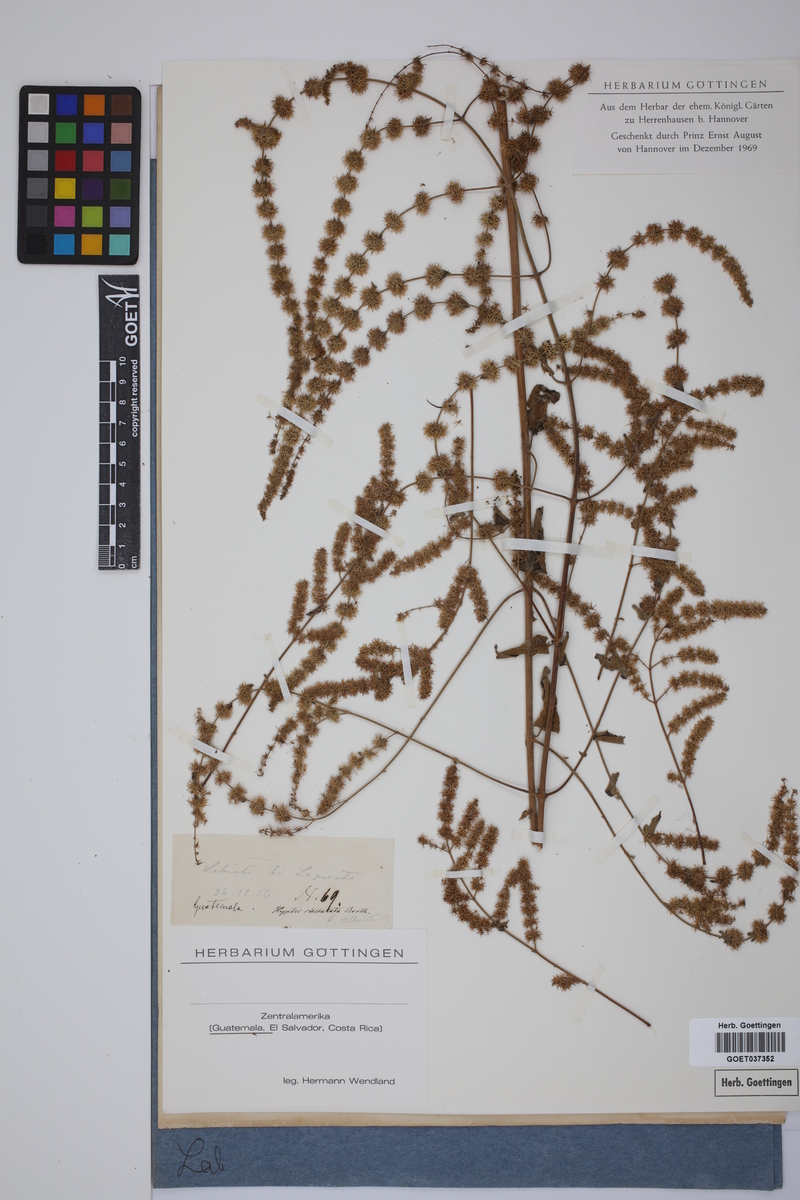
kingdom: Plantae
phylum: Tracheophyta
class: Magnoliopsida
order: Lamiales
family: Lamiaceae
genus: Asterohyptis
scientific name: Asterohyptis stellulata
